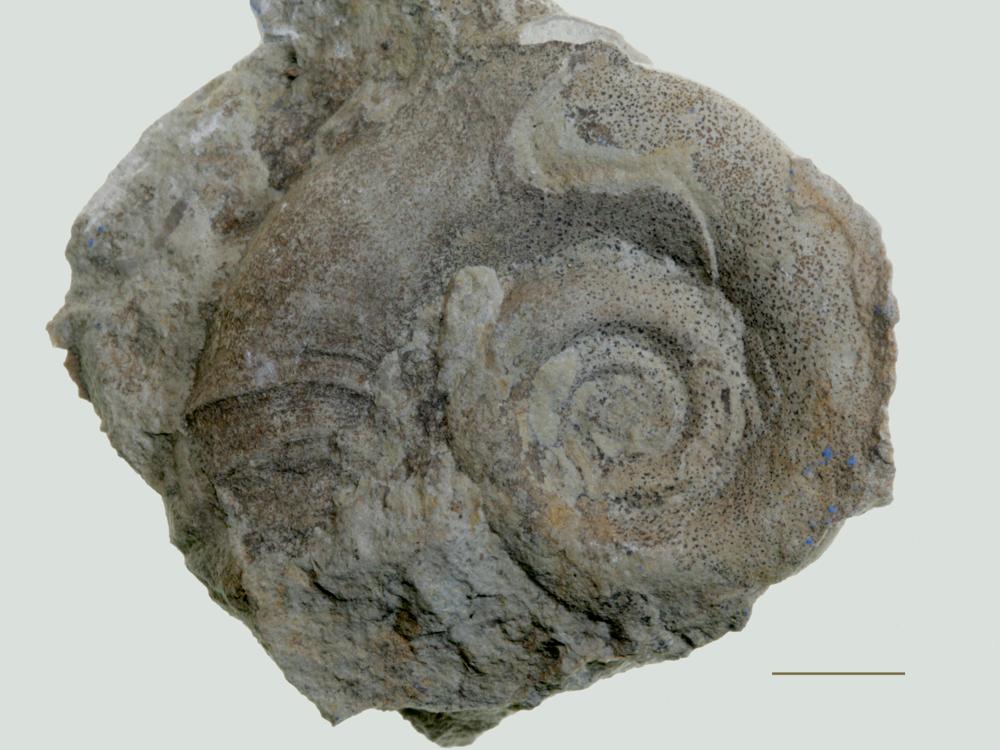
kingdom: Animalia
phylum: Mollusca
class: Gastropoda
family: Euomphalidae
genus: Euomphalus
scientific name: Euomphalus
